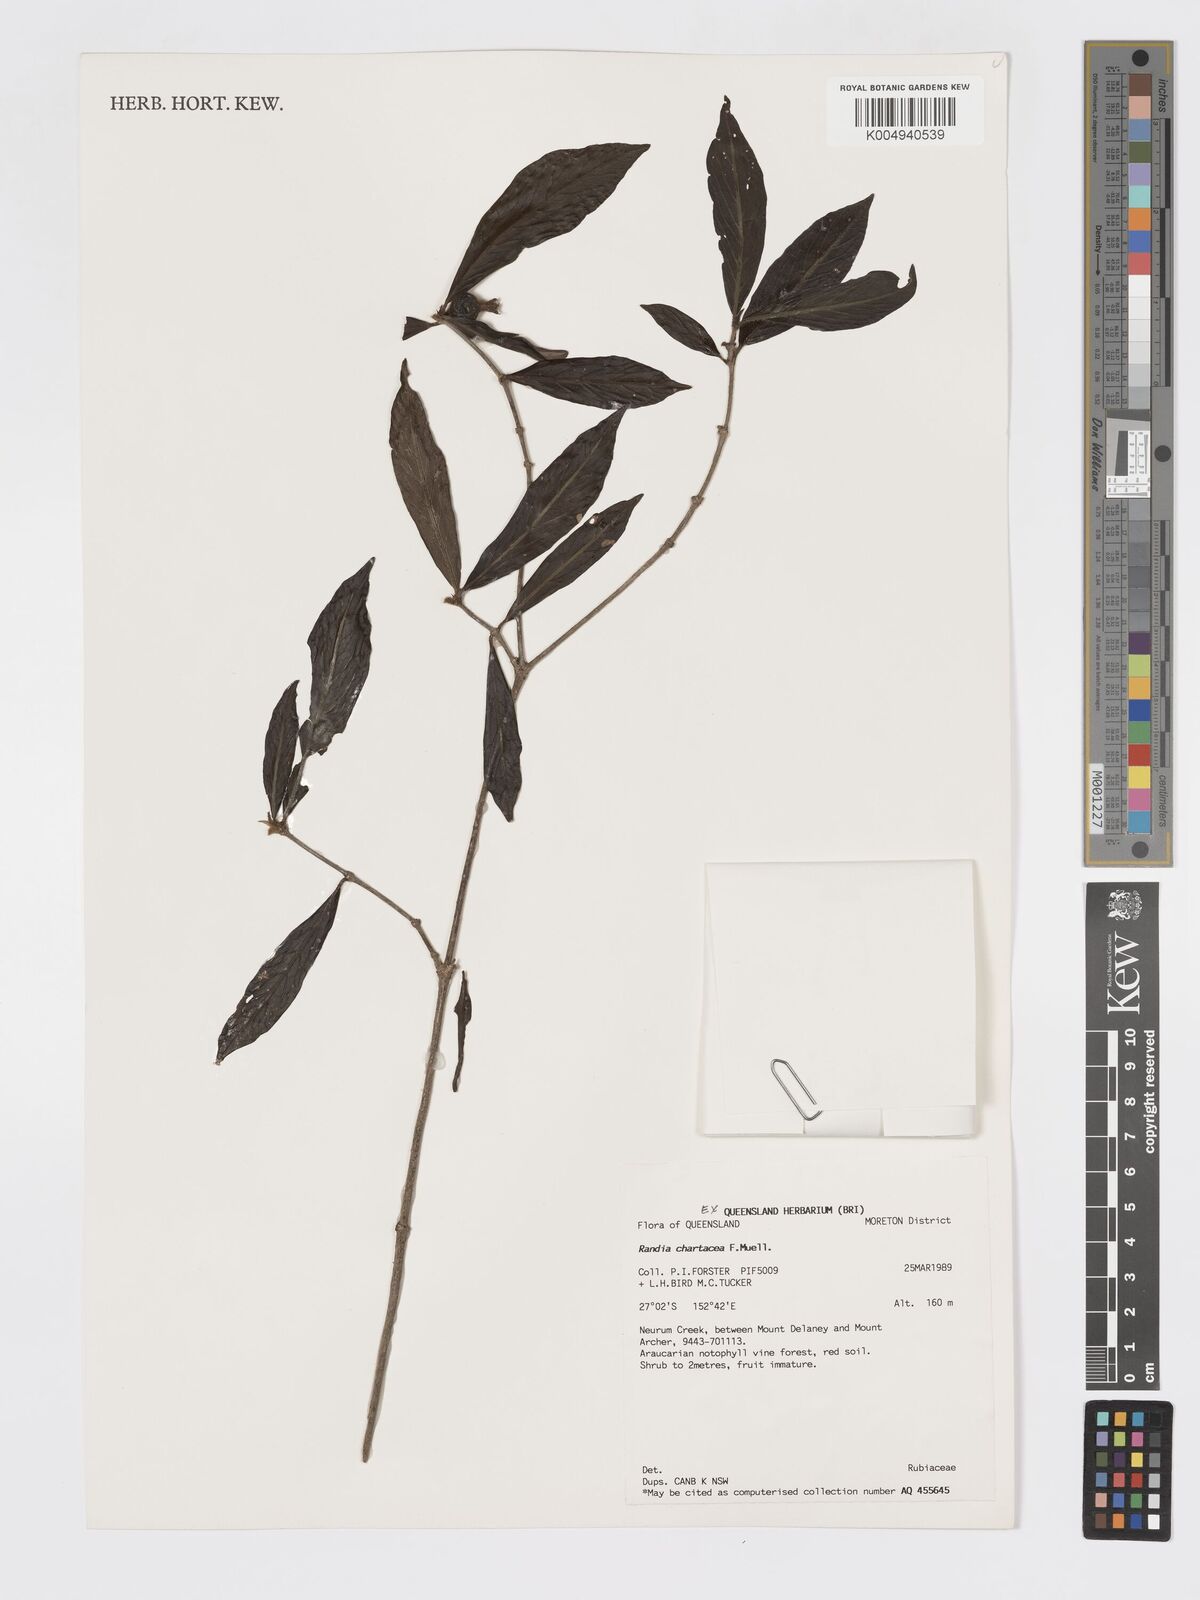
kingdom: Plantae
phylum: Tracheophyta
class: Magnoliopsida
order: Gentianales
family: Rubiaceae
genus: Atractocarpus
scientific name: Atractocarpus chartaceus
